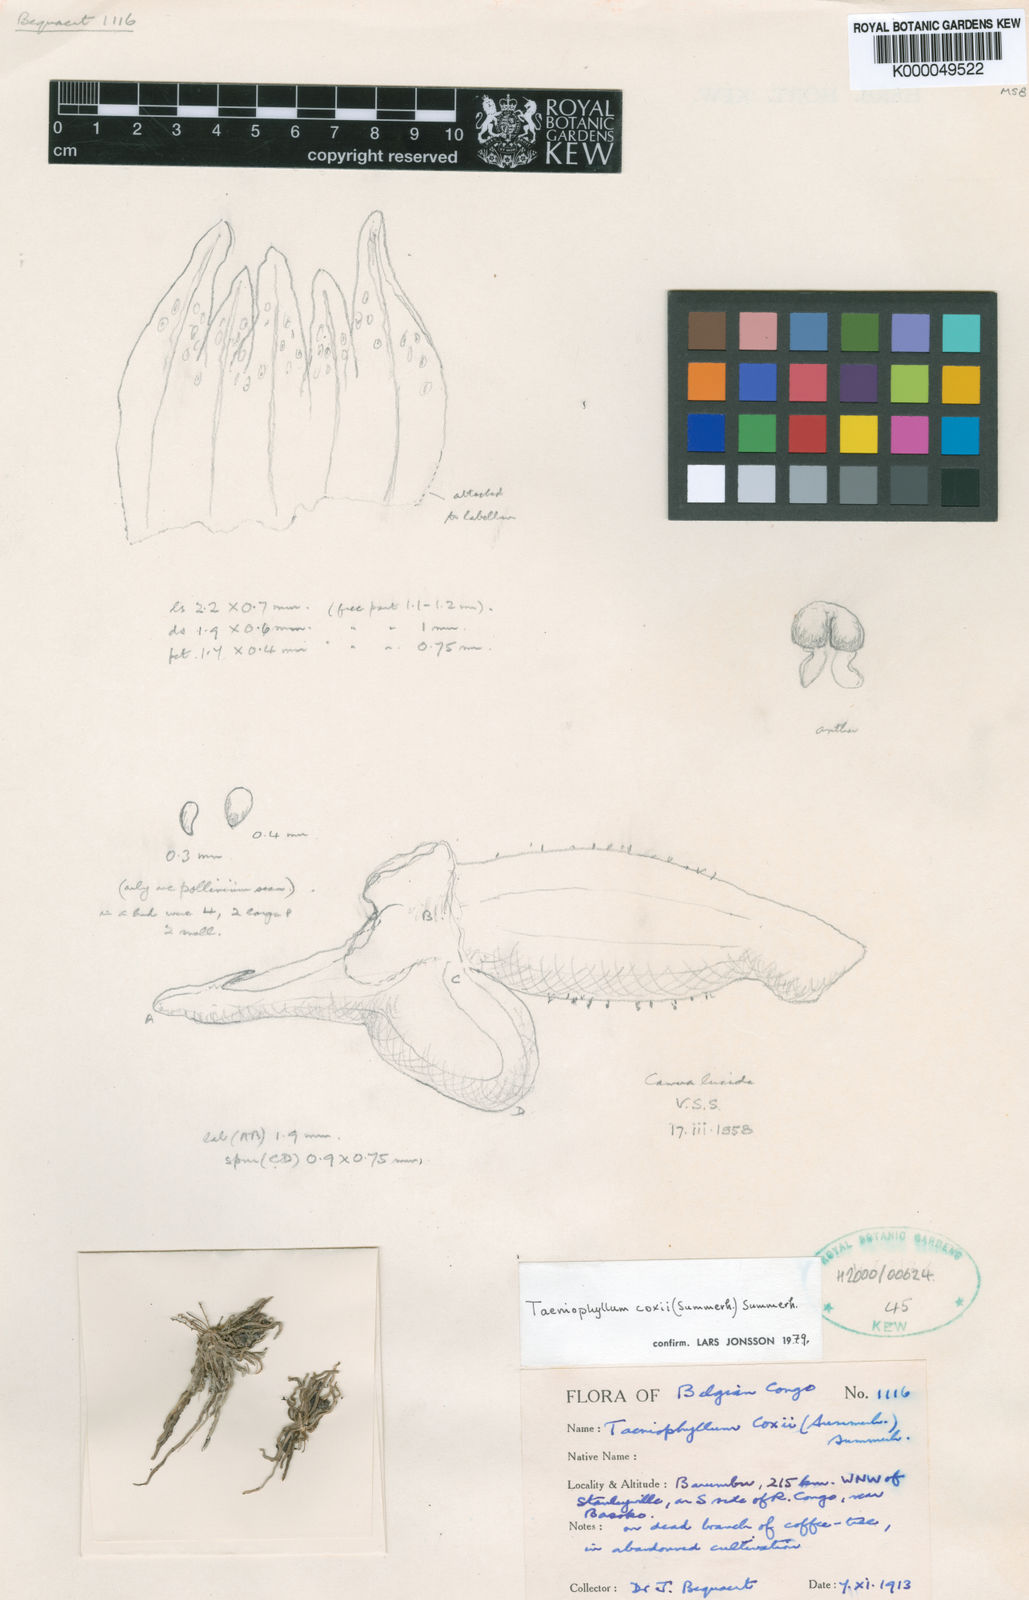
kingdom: Plantae
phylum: Tracheophyta
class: Liliopsida
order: Asparagales
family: Orchidaceae
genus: Taeniophyllum
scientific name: Taeniophyllum coxii
